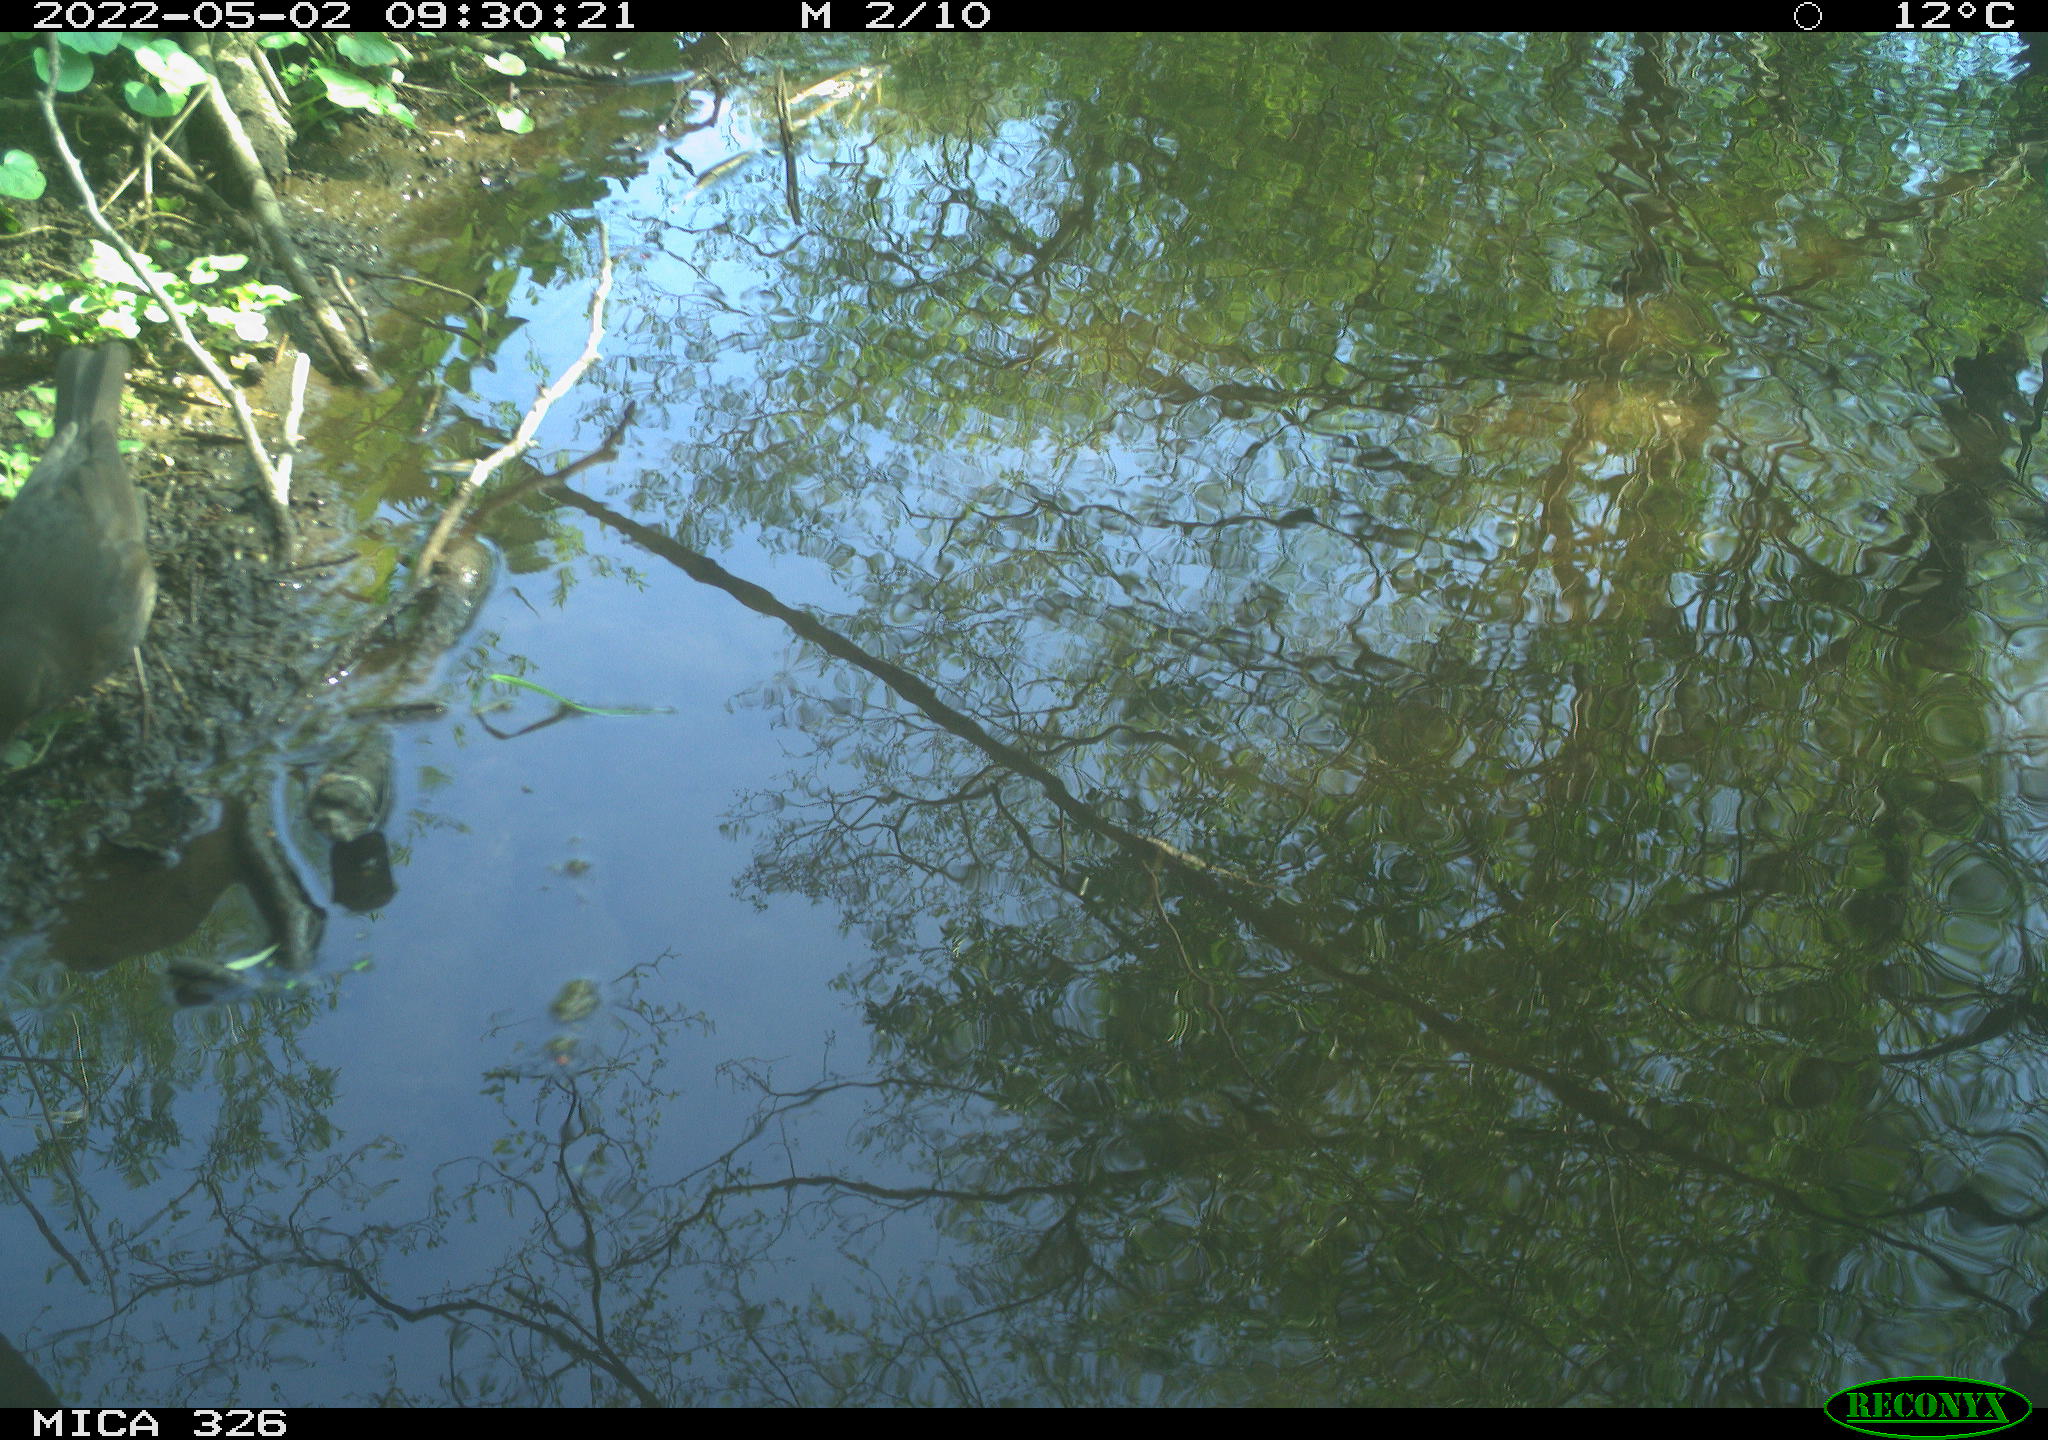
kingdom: Animalia
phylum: Chordata
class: Aves
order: Passeriformes
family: Turdidae
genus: Turdus
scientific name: Turdus merula
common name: Common blackbird
